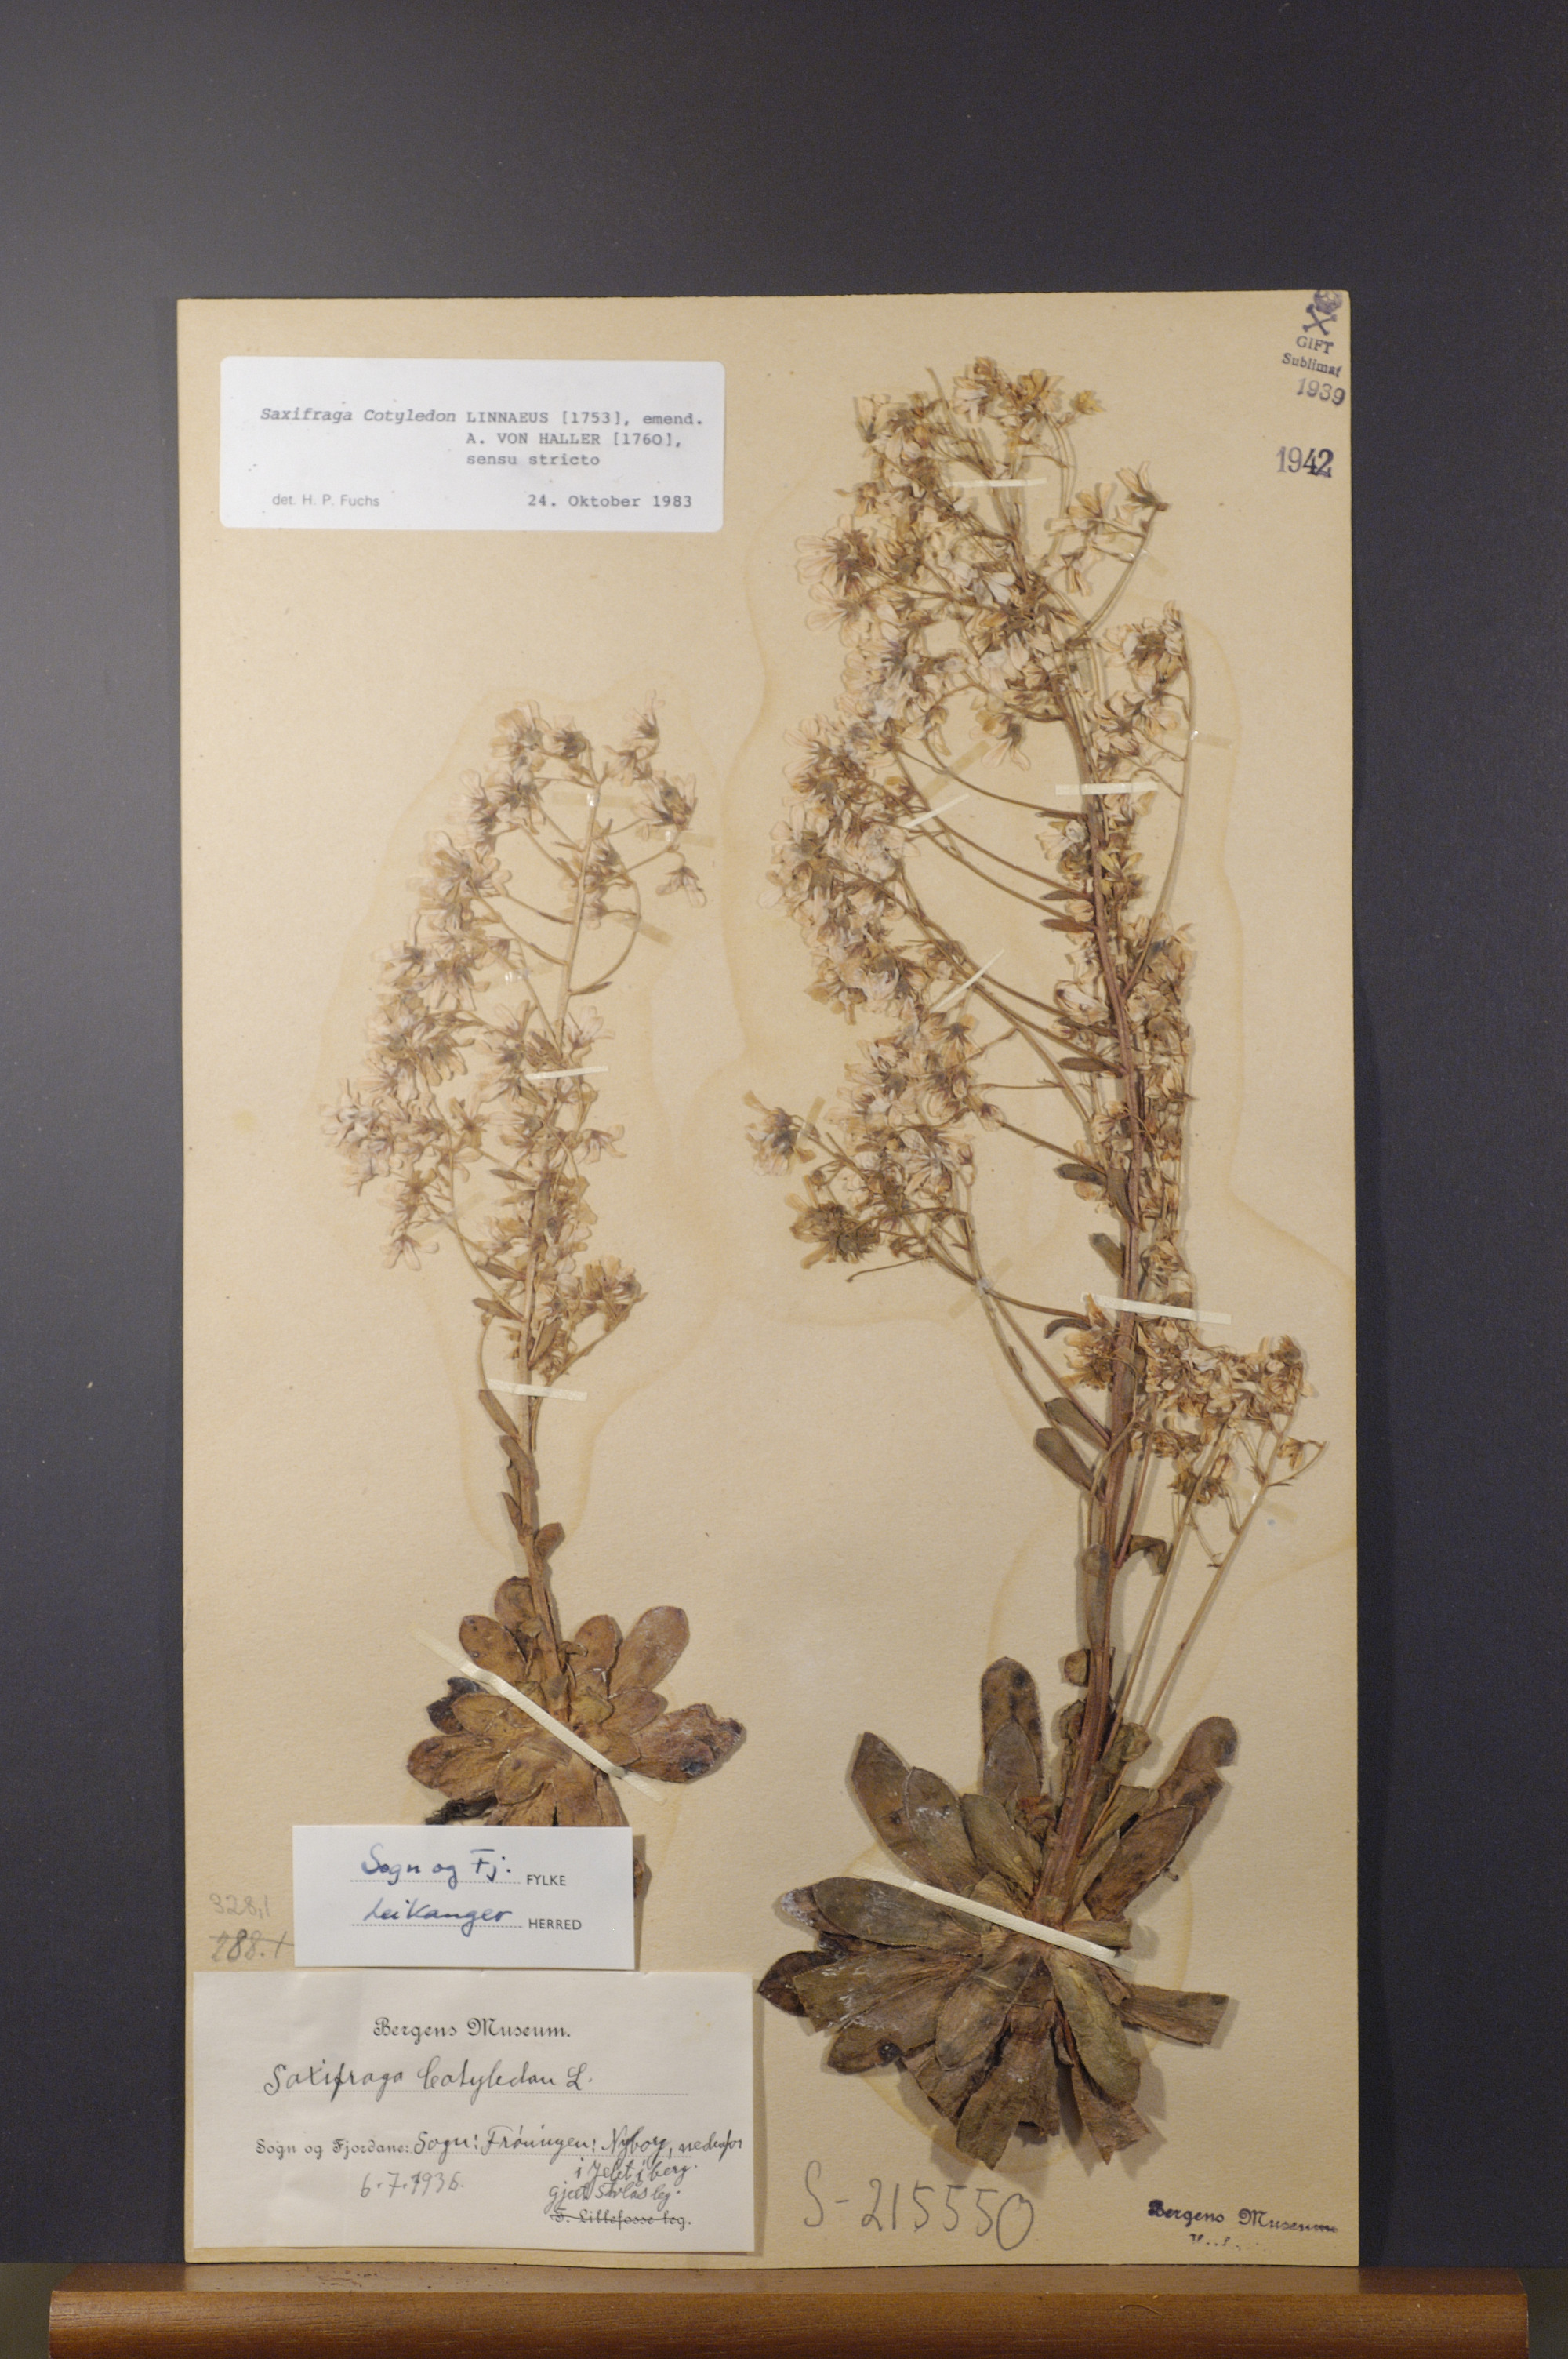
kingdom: Plantae
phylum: Tracheophyta
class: Magnoliopsida
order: Saxifragales
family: Saxifragaceae
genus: Saxifraga
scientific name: Saxifraga cotyledon
